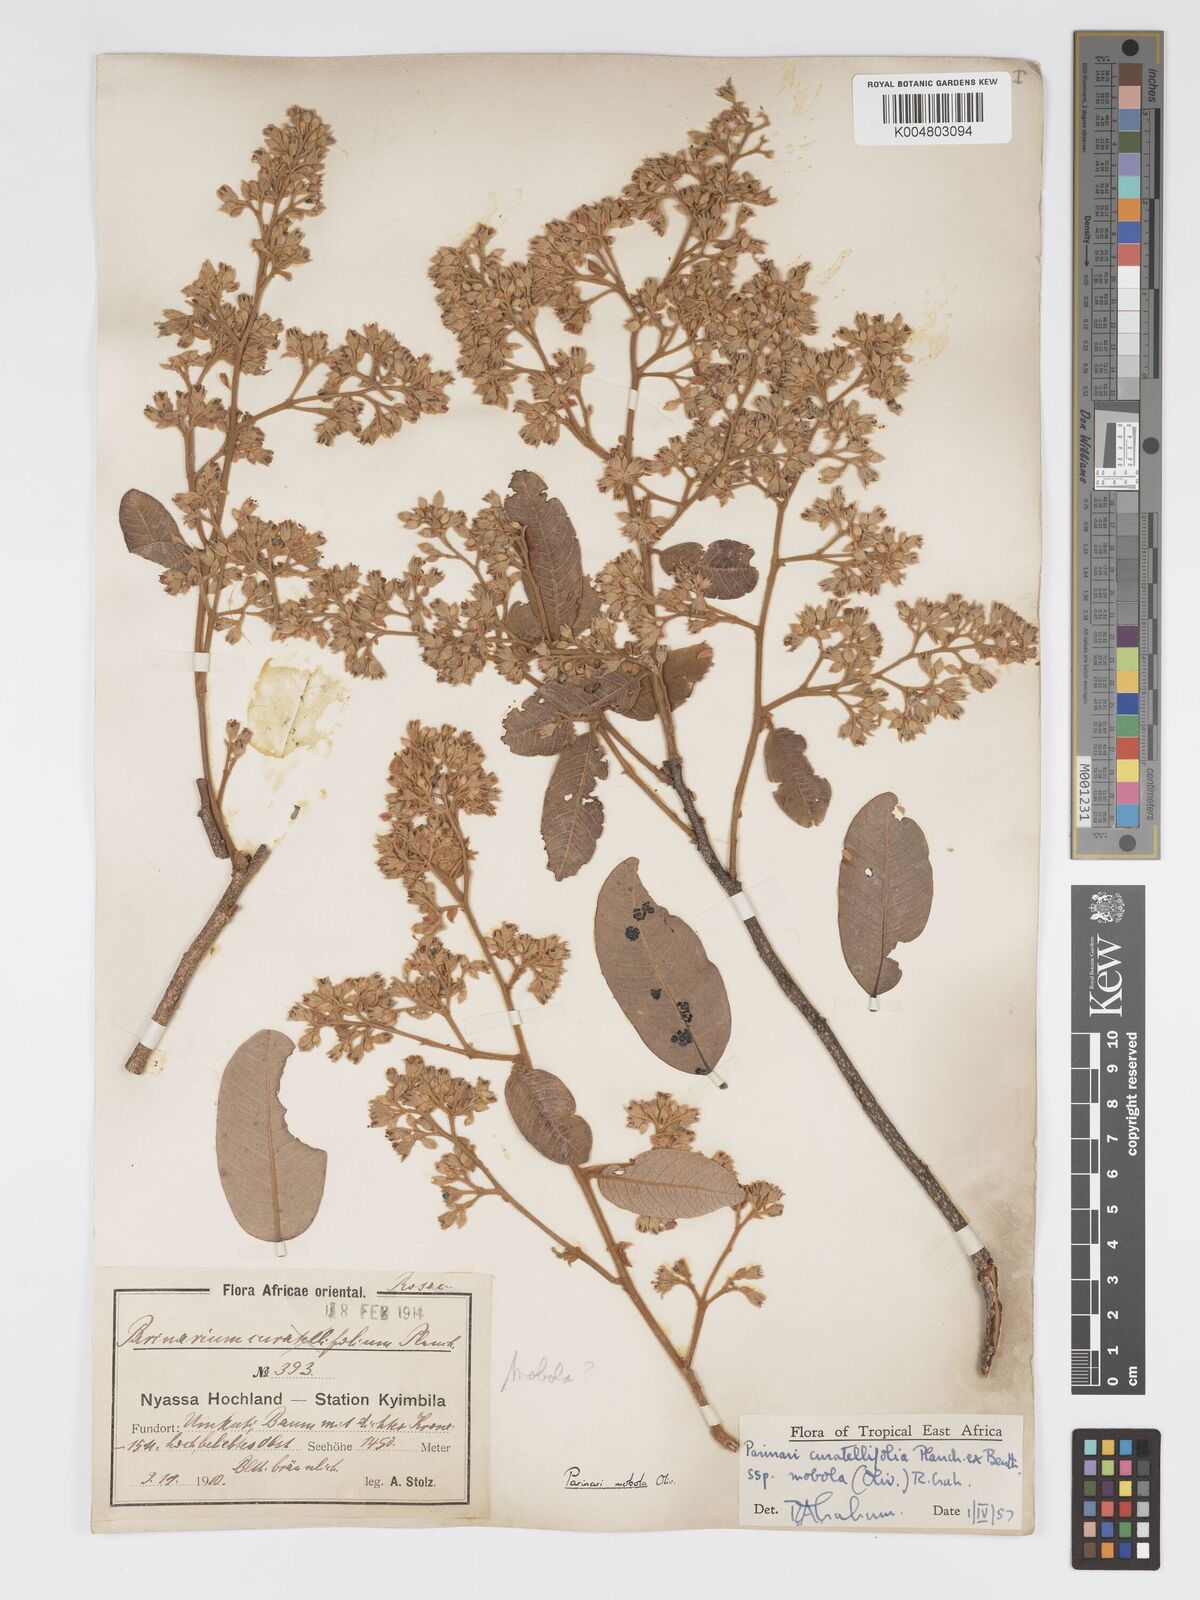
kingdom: Plantae
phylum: Tracheophyta
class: Magnoliopsida
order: Malpighiales
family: Chrysobalanaceae
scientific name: Chrysobalanaceae
